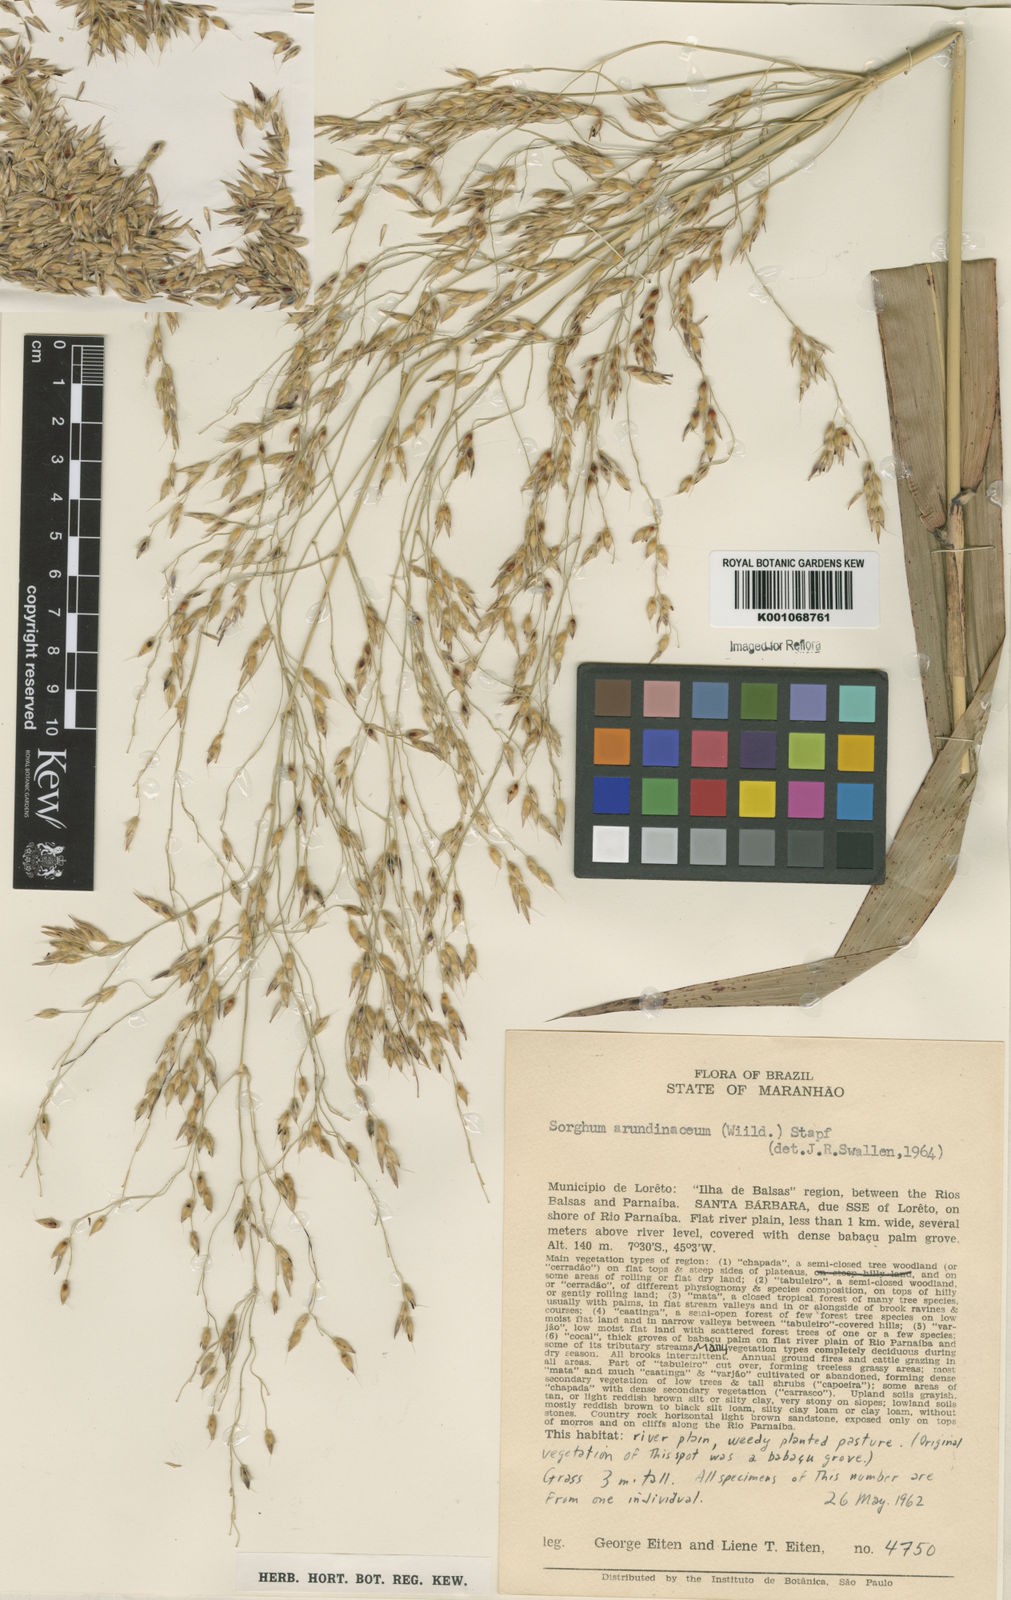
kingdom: Plantae
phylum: Tracheophyta
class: Liliopsida
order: Poales
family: Poaceae
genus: Sorghum
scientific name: Sorghum arundinaceum
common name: Sorghum
